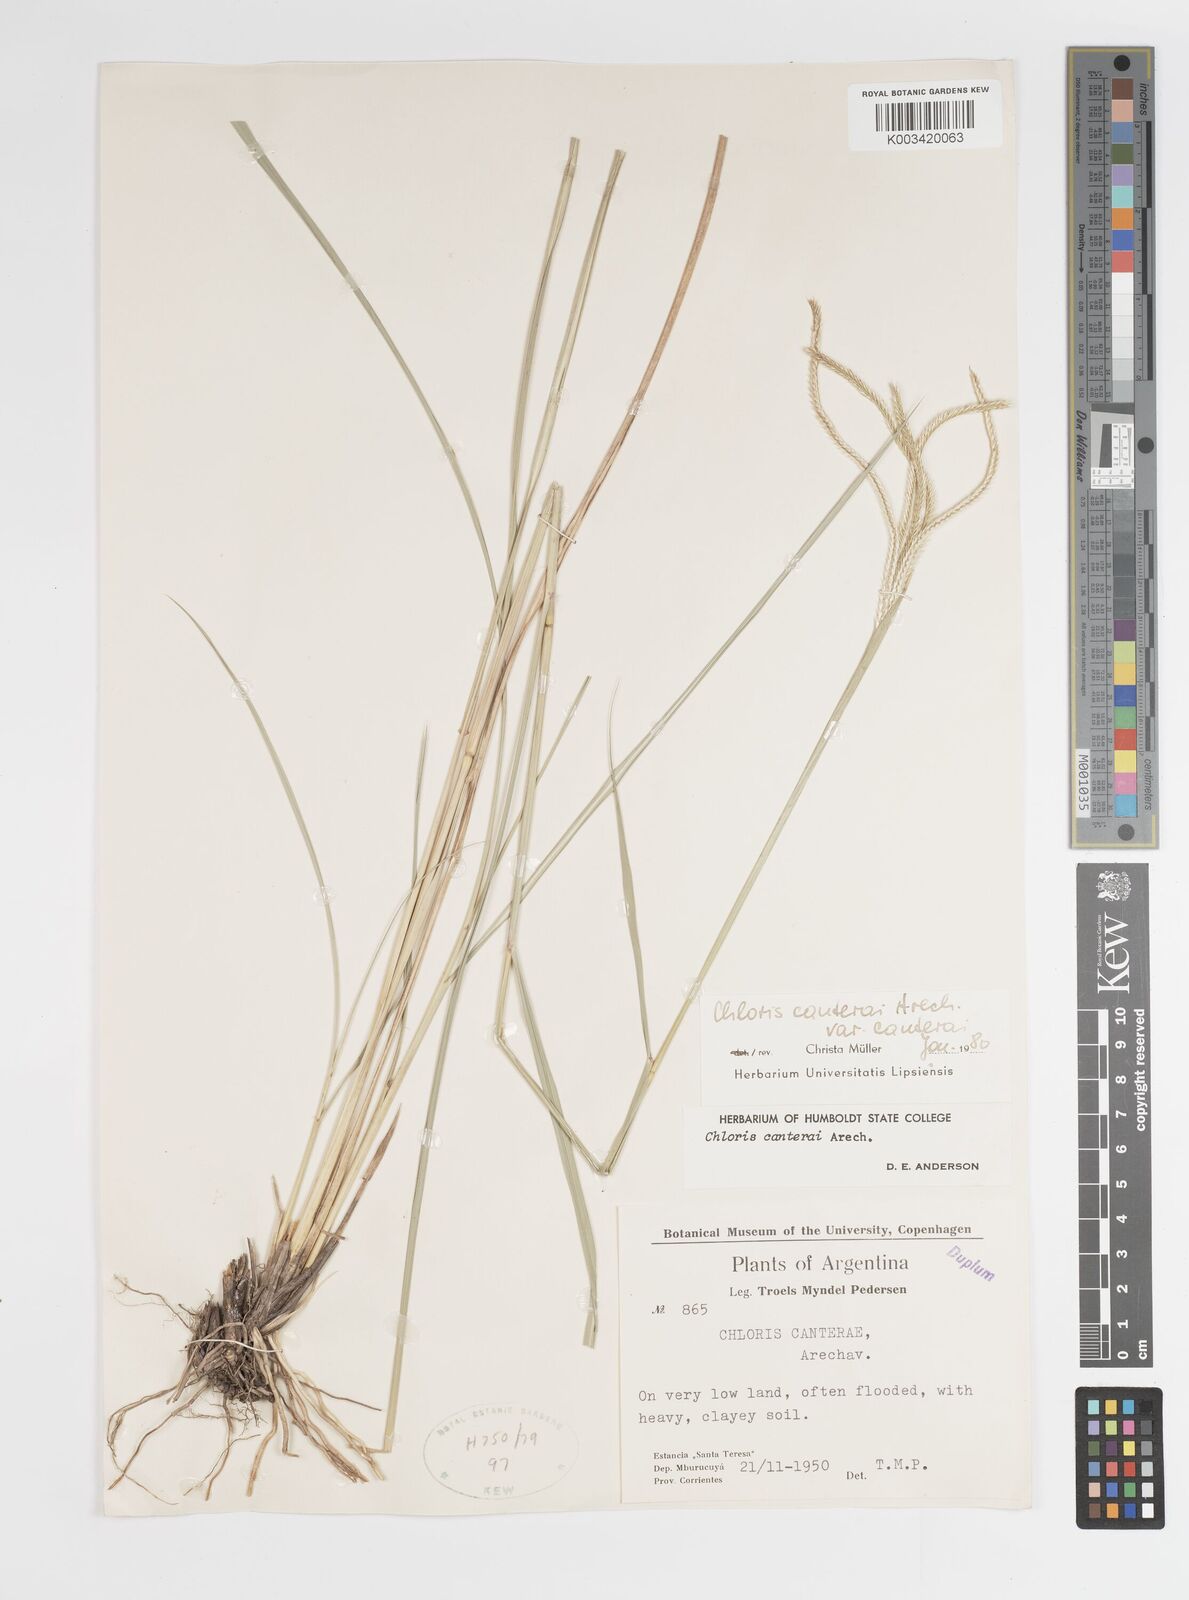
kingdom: Plantae
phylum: Tracheophyta
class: Liliopsida
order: Poales
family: Poaceae
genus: Stapfochloa
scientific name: Stapfochloa canterae
